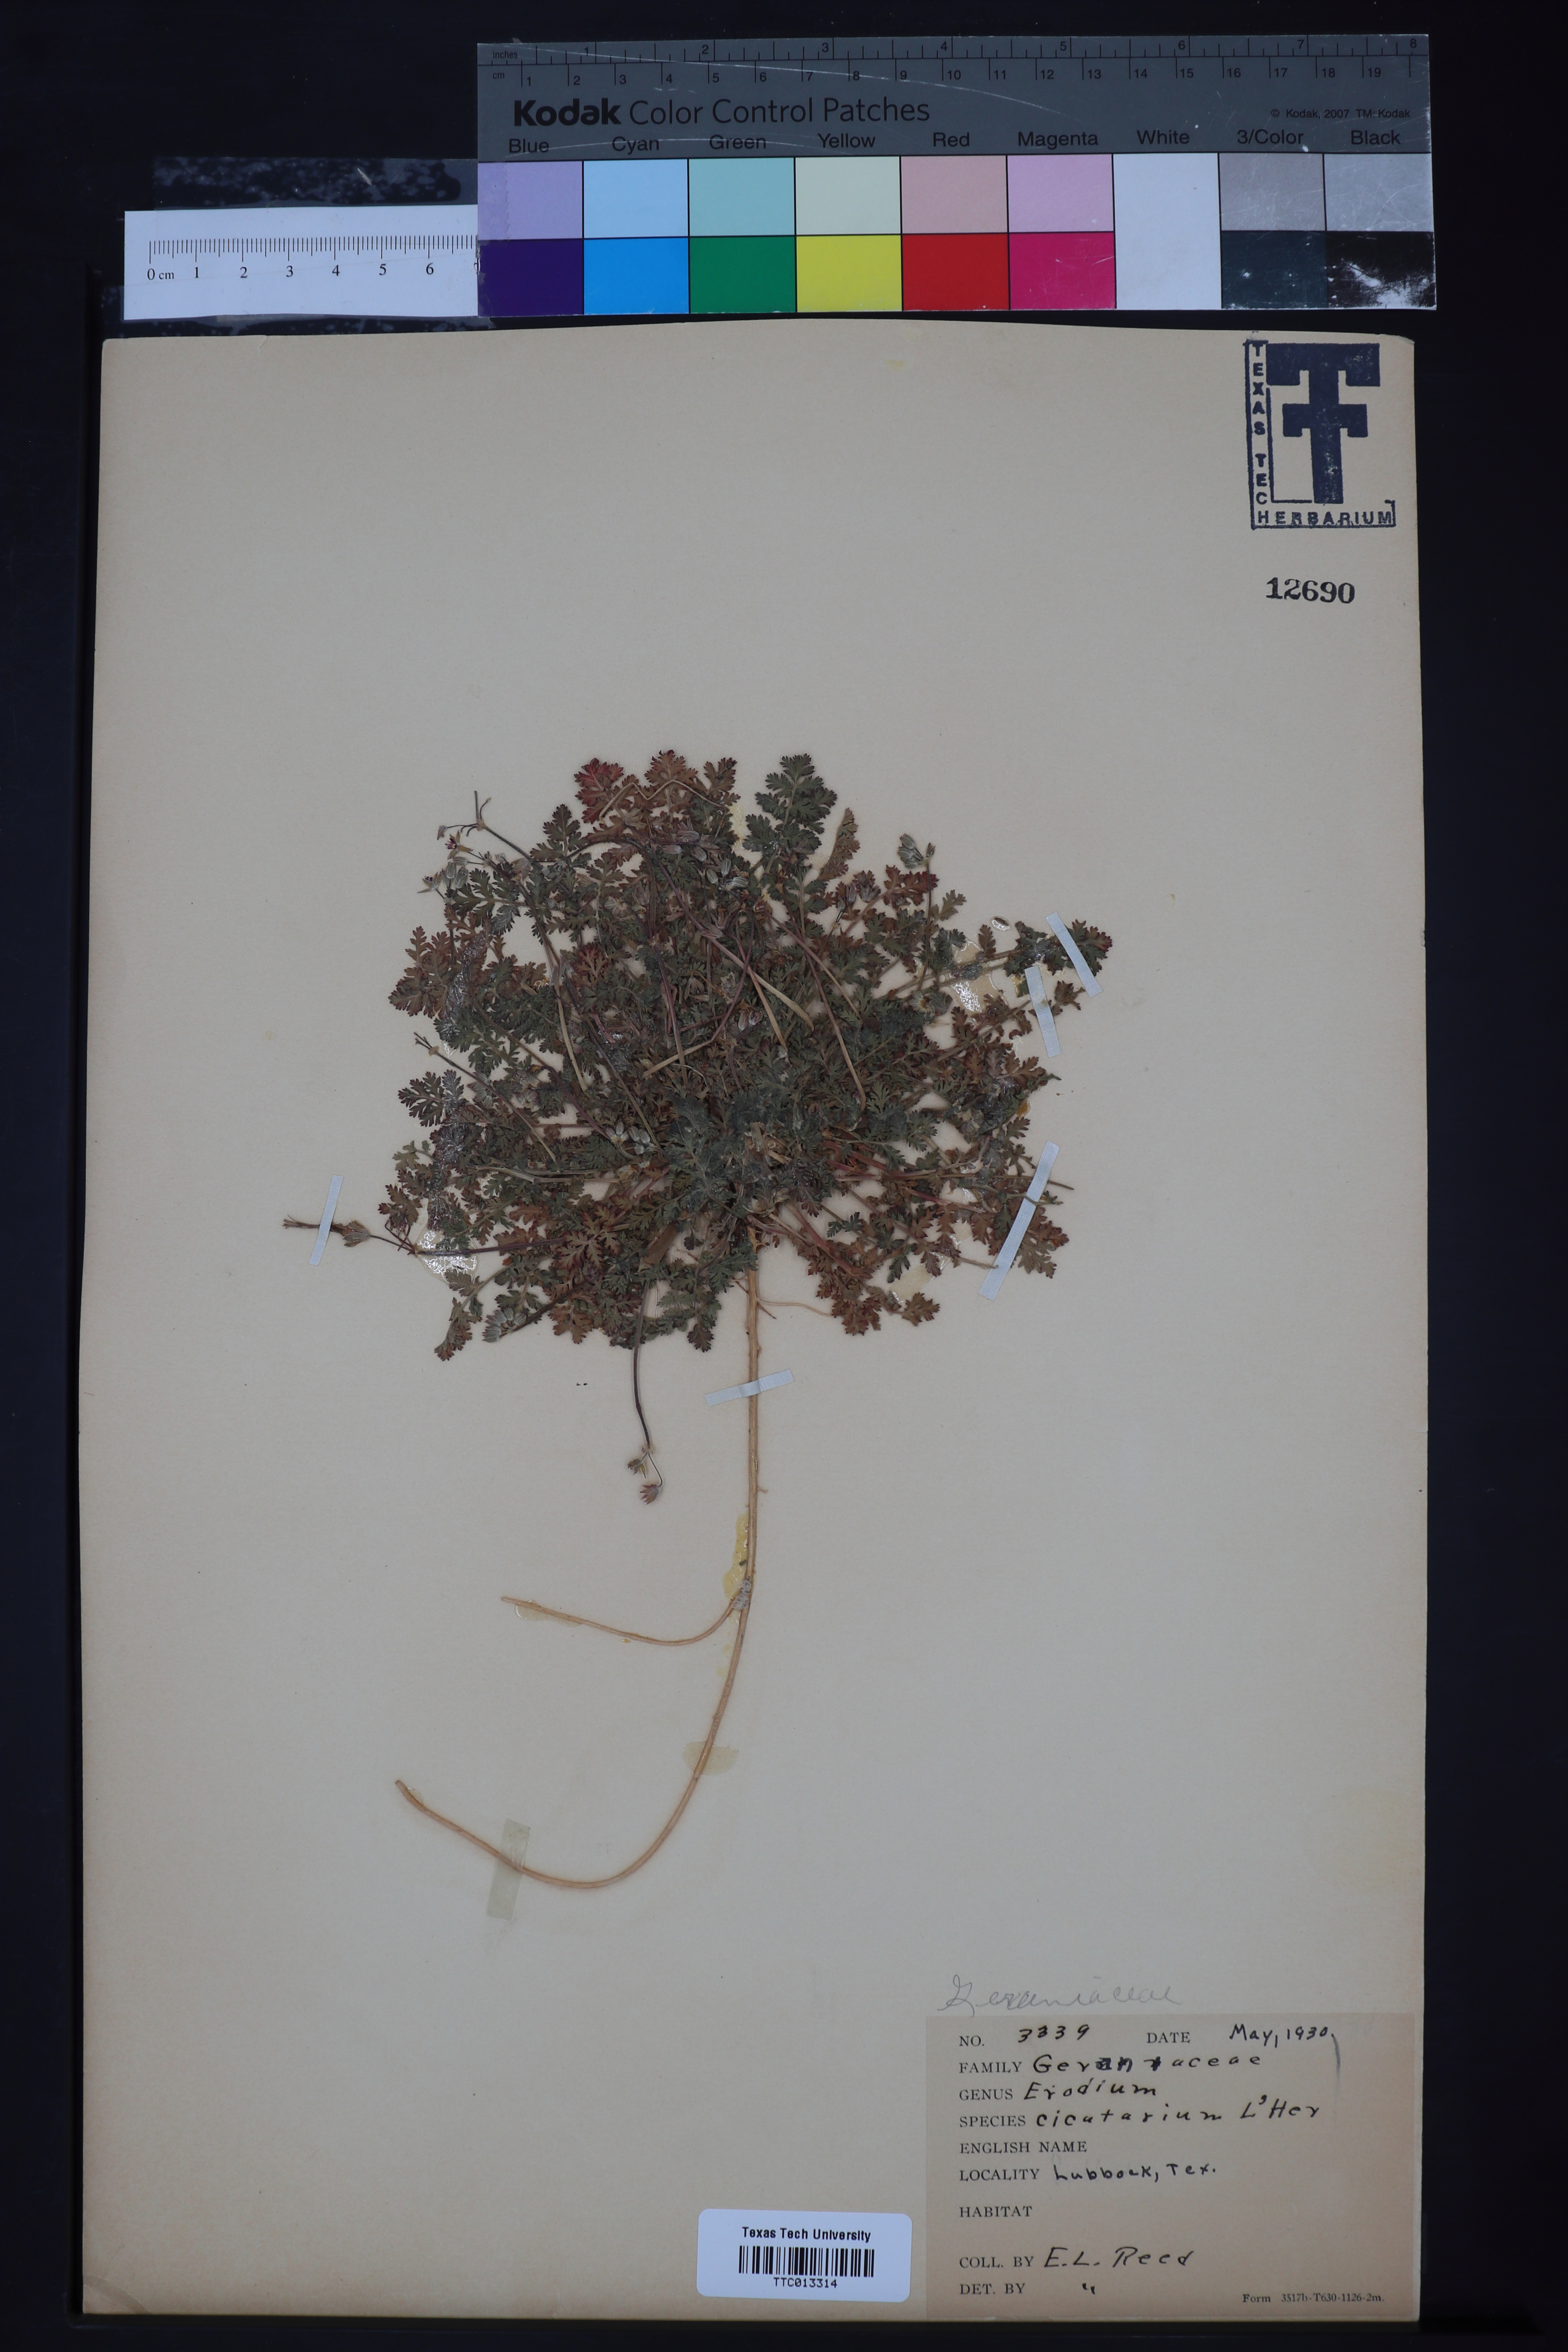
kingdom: Plantae
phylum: Tracheophyta
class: Magnoliopsida
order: Geraniales
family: Geraniaceae
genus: Erodium
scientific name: Erodium cicutarium
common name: Common stork's-bill
